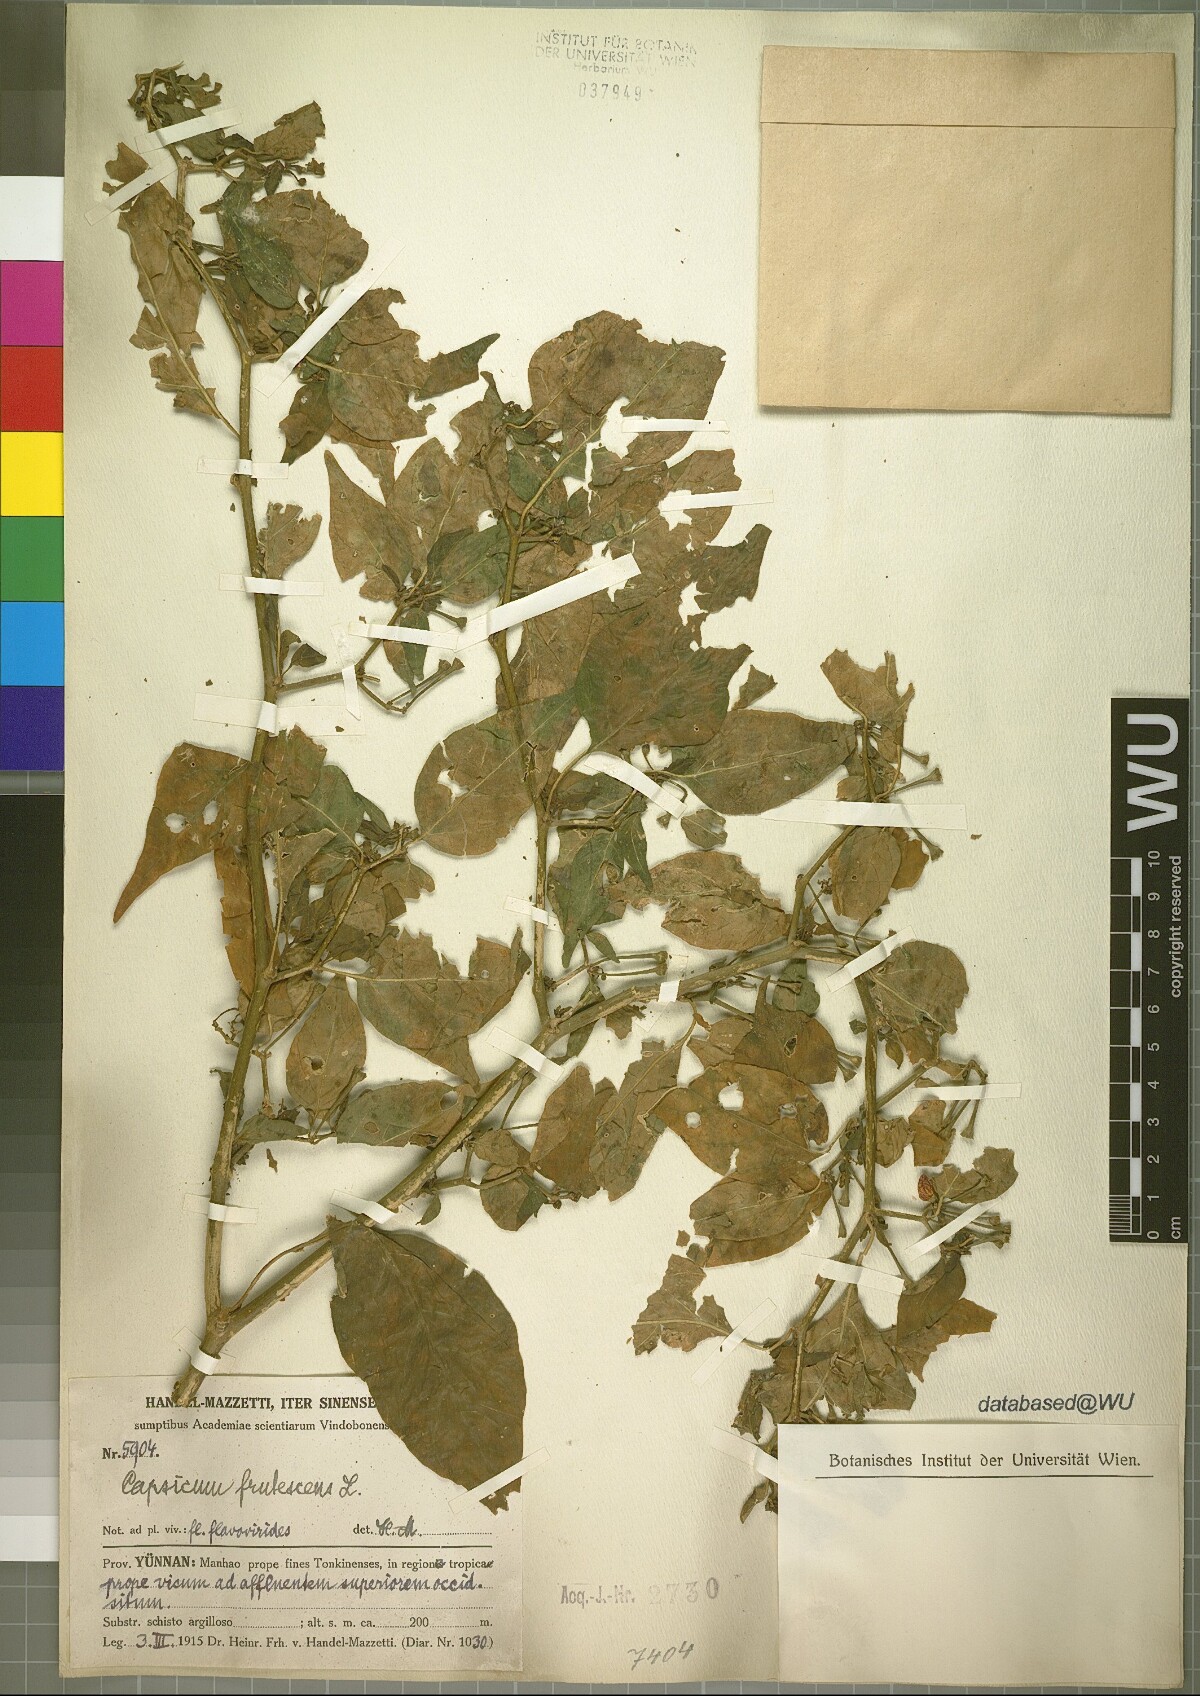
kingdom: Plantae
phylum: Tracheophyta
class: Magnoliopsida
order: Solanales
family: Solanaceae
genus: Capsicum
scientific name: Capsicum annuum
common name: Sweet pepper
